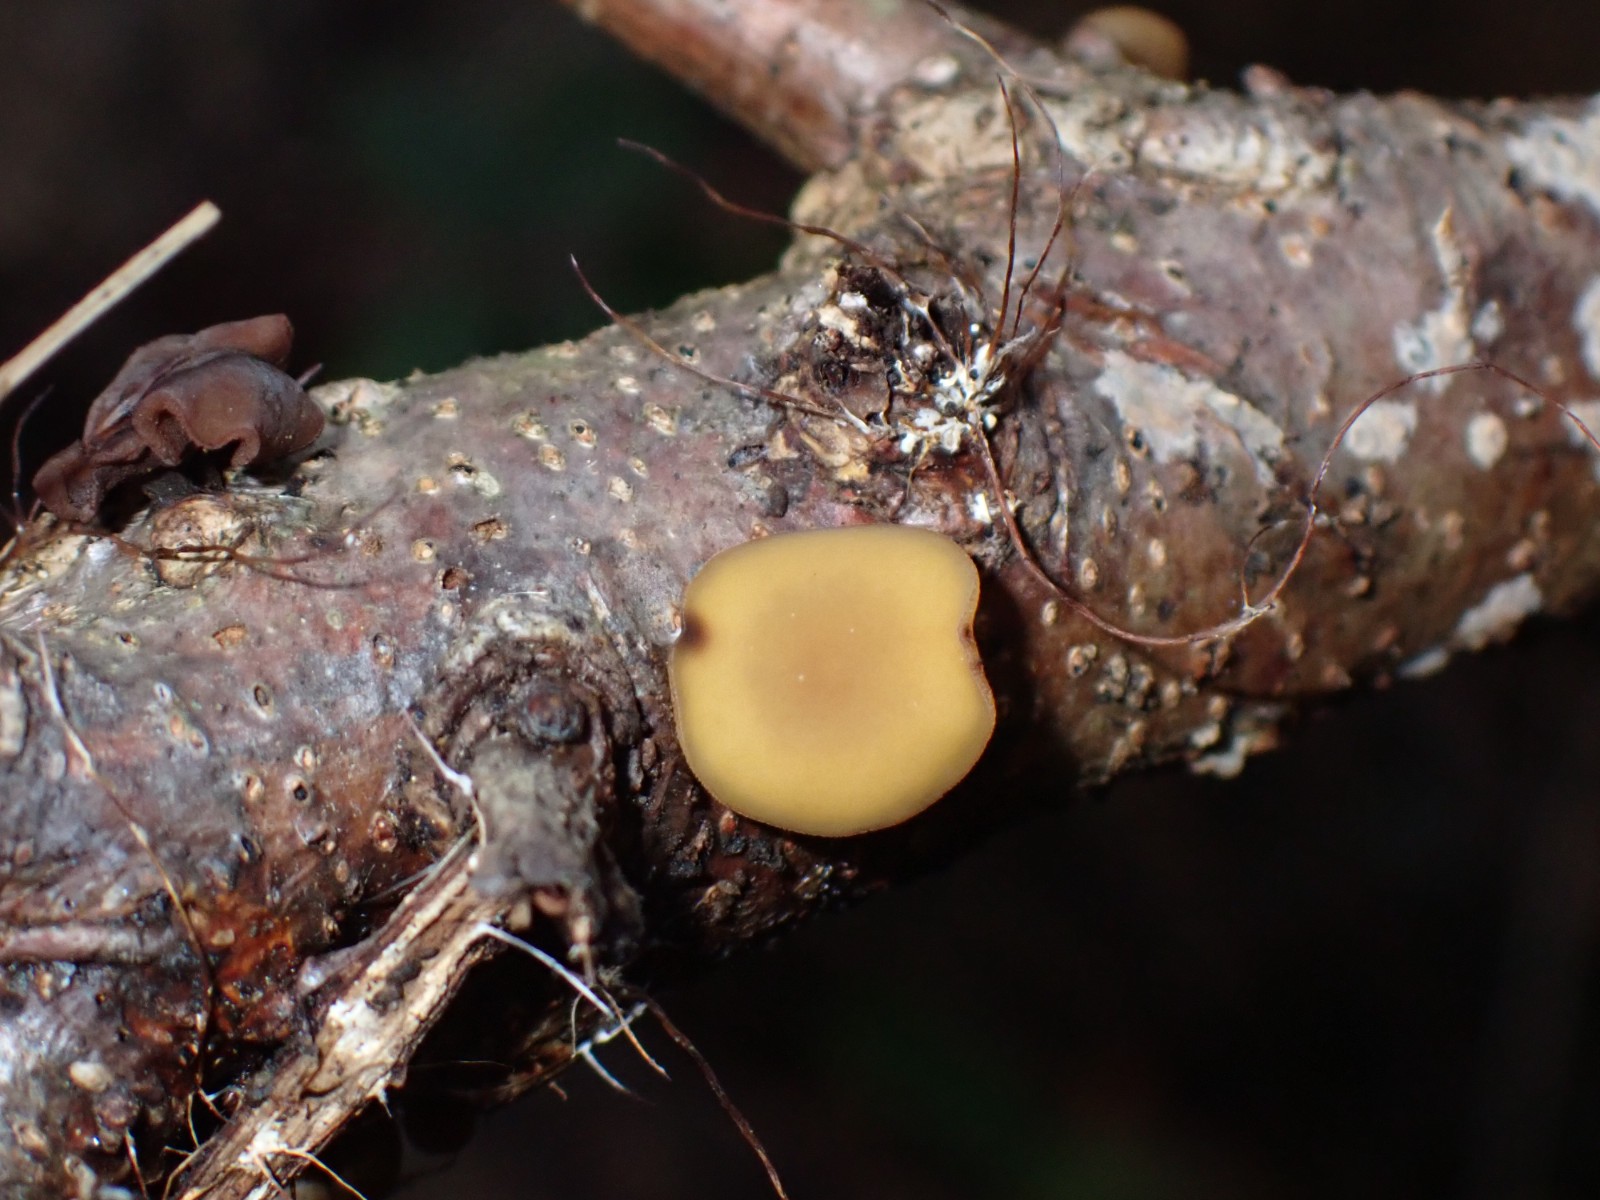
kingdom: Fungi
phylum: Ascomycota
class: Leotiomycetes
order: Helotiales
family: Rutstroemiaceae
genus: Rutstroemia
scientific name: Rutstroemia firma
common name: gren-brunskive
